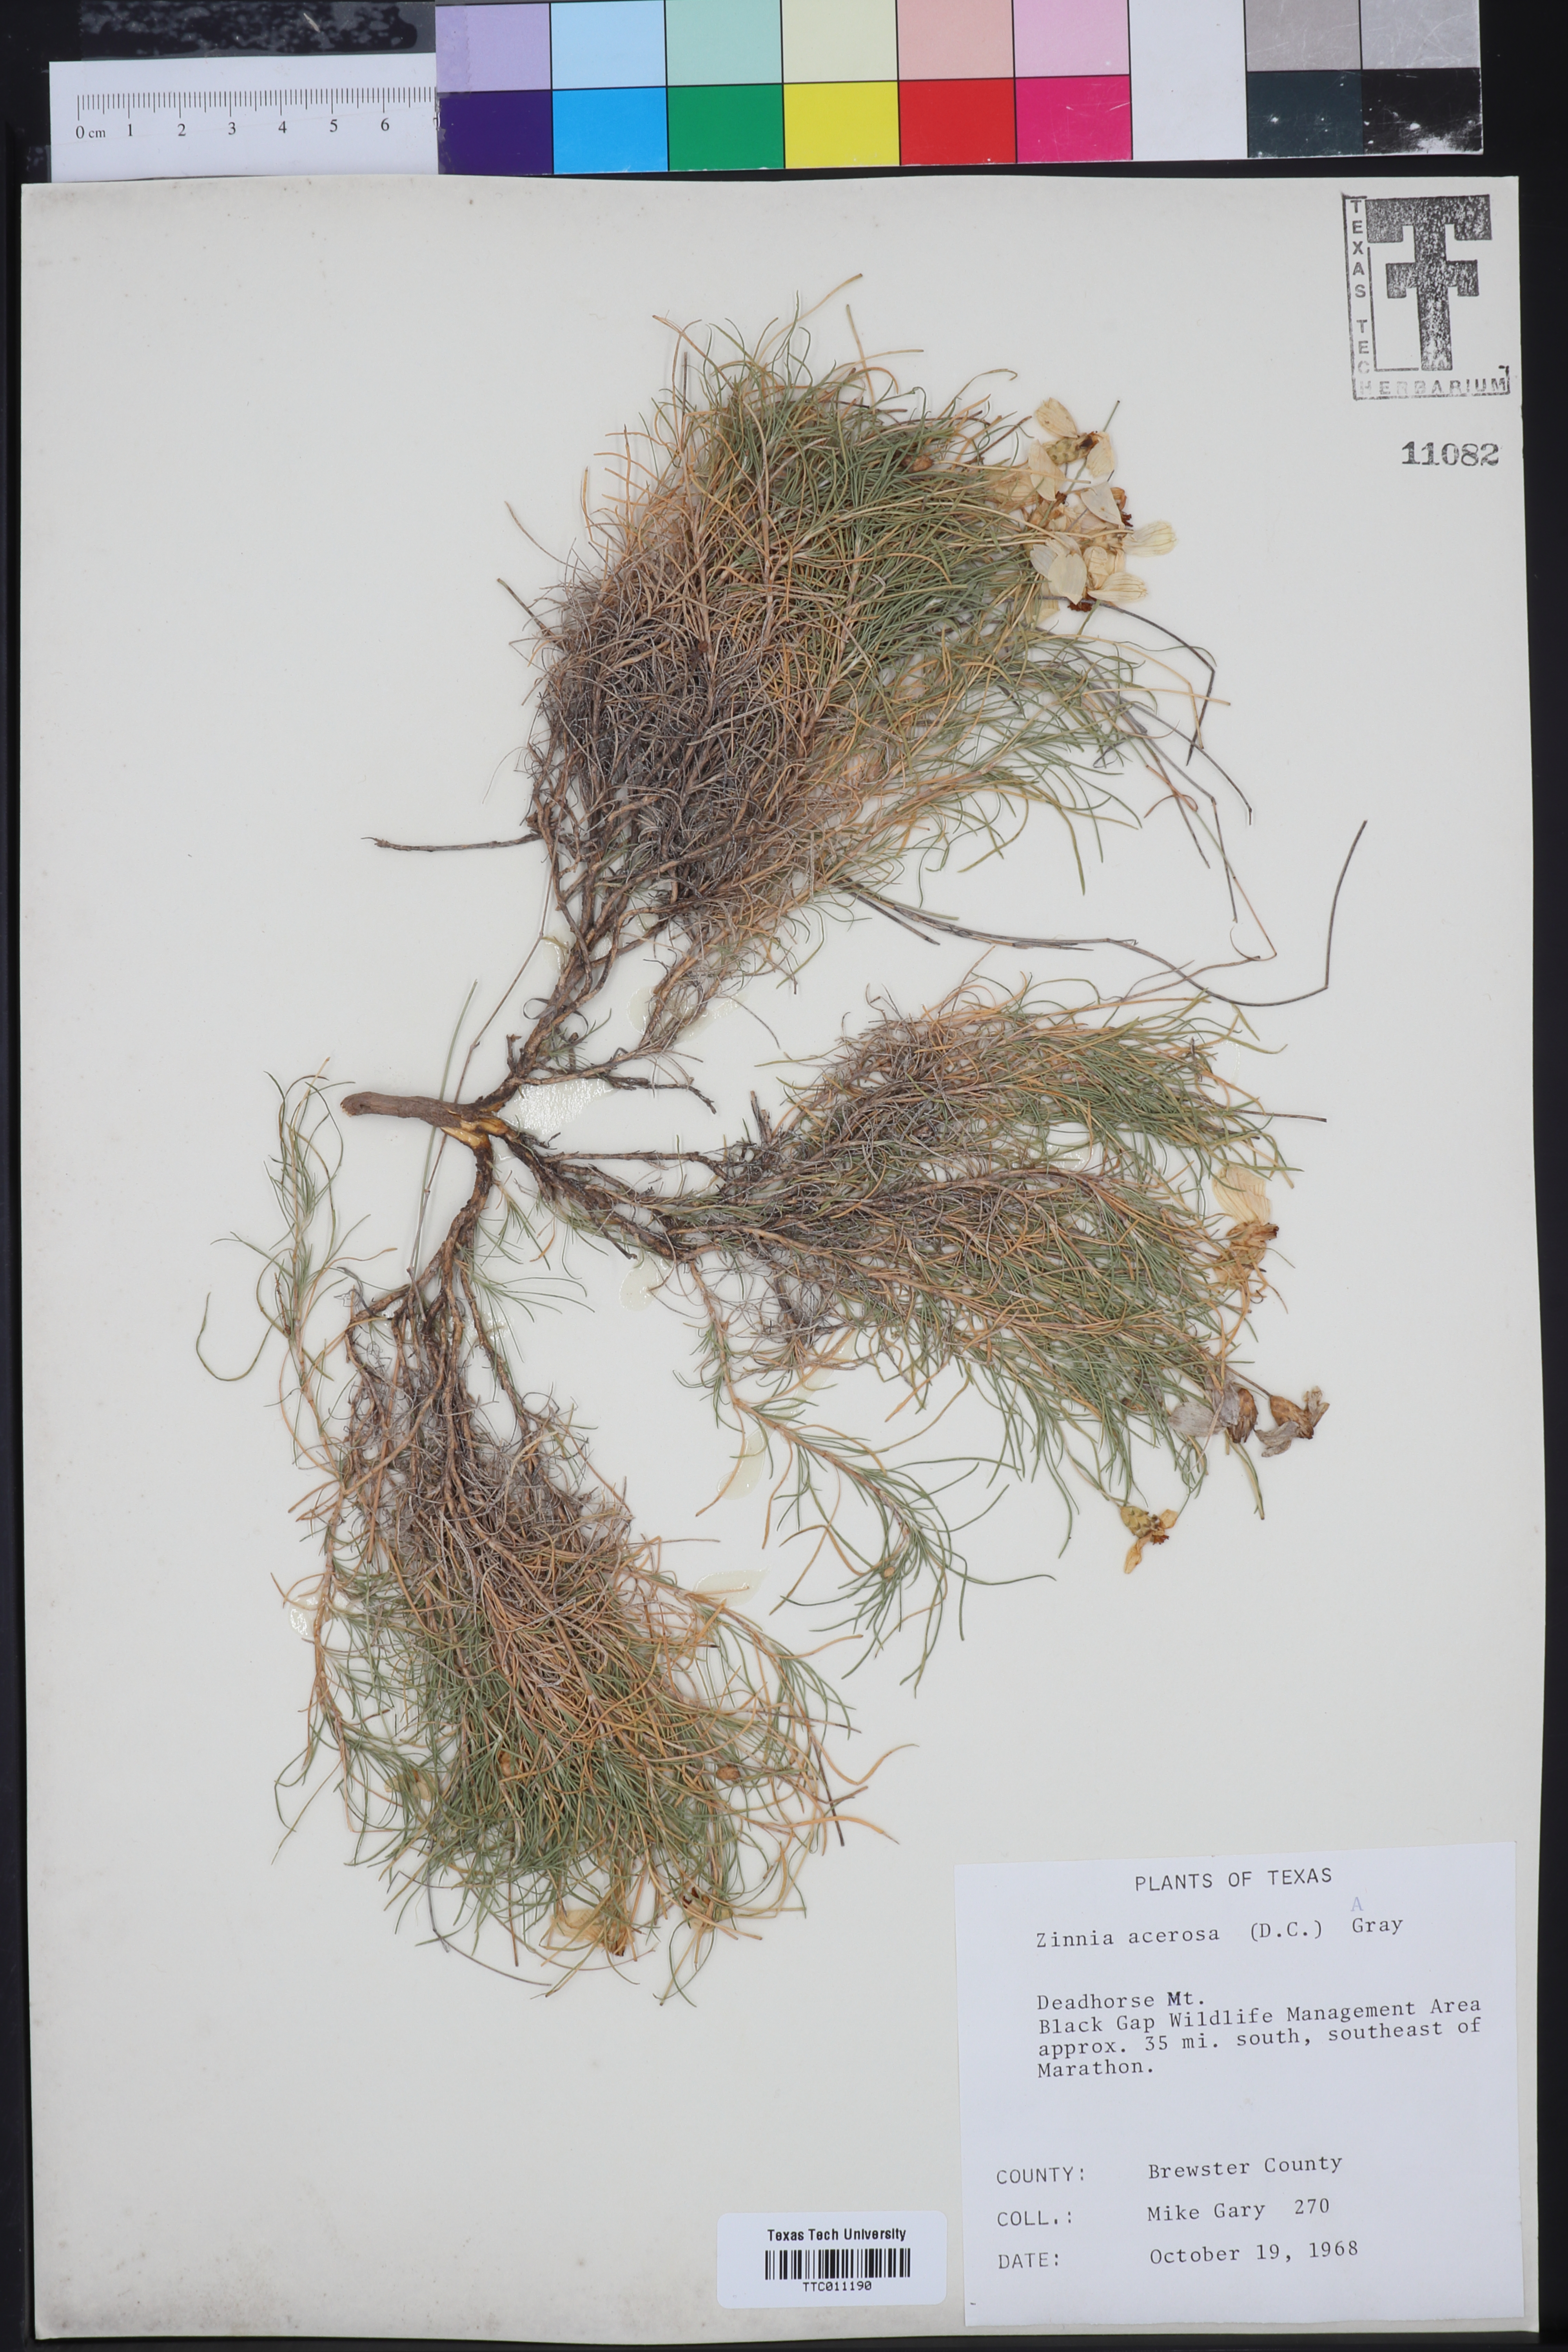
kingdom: Plantae
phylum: Tracheophyta
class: Magnoliopsida
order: Asterales
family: Asteraceae
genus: Zinnia
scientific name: Zinnia acerosa
